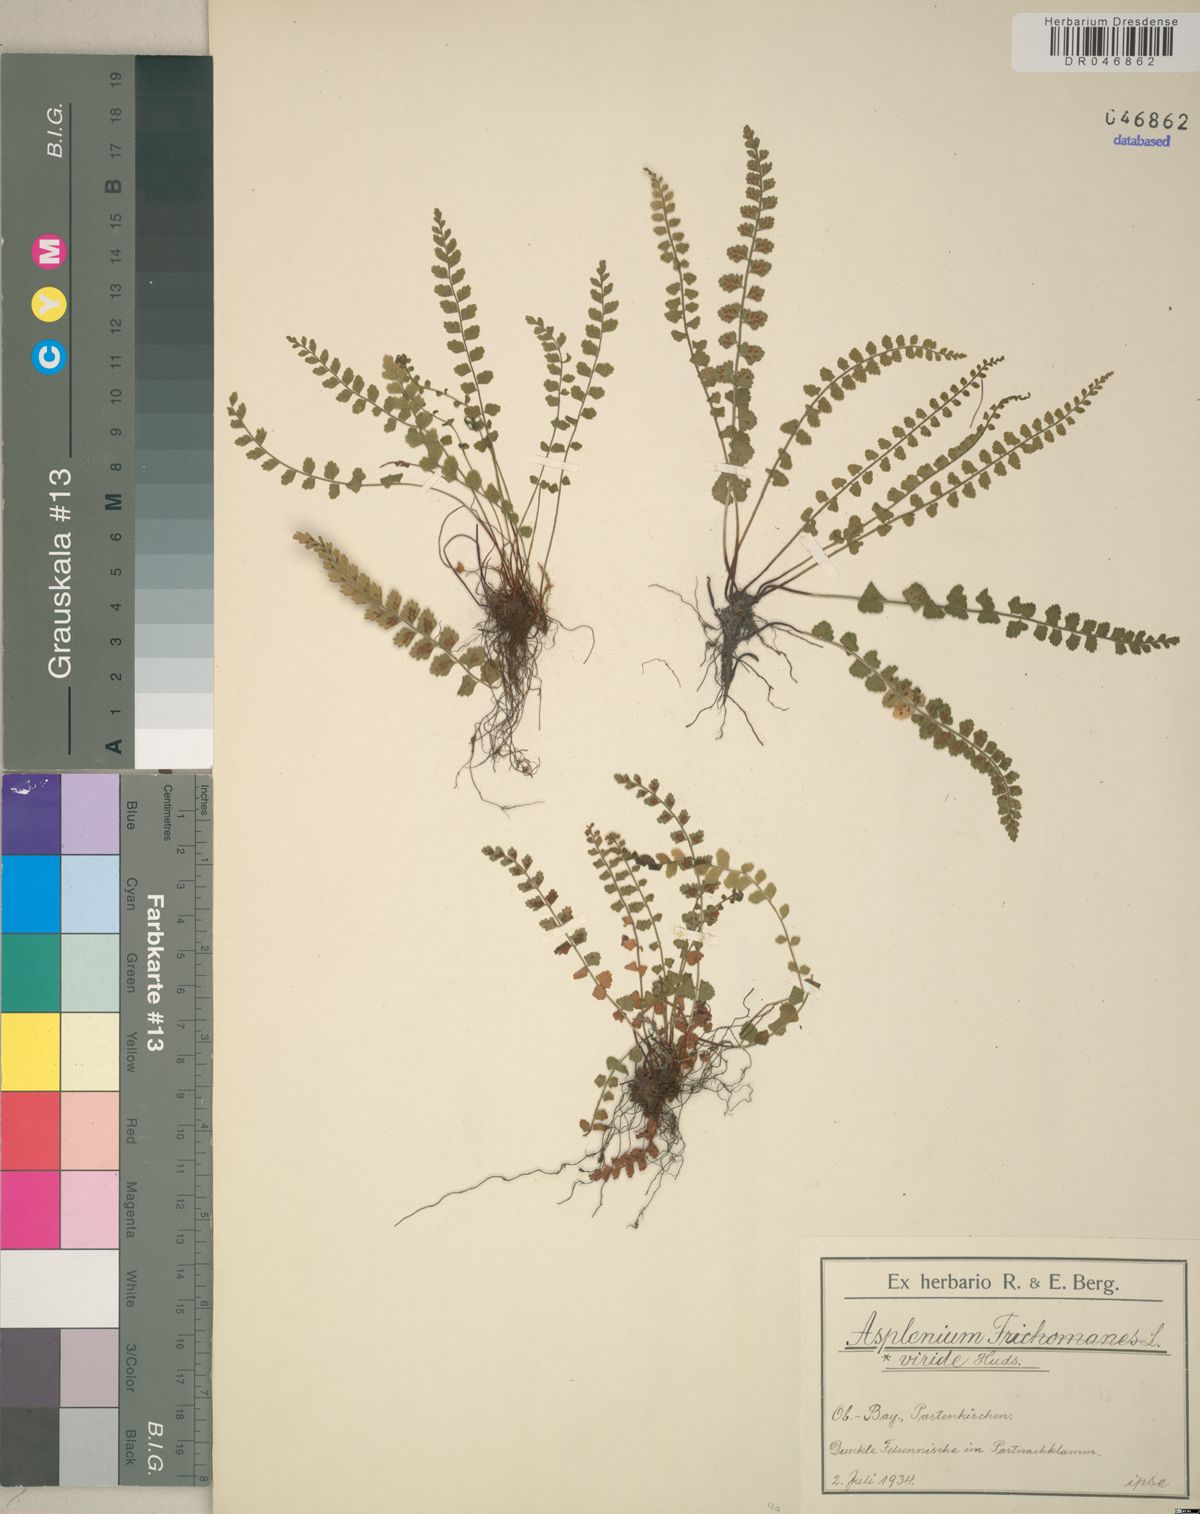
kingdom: Plantae
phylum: Tracheophyta
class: Polypodiopsida
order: Polypodiales
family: Aspleniaceae
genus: Asplenium
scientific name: Asplenium viride
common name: Green spleenwort
